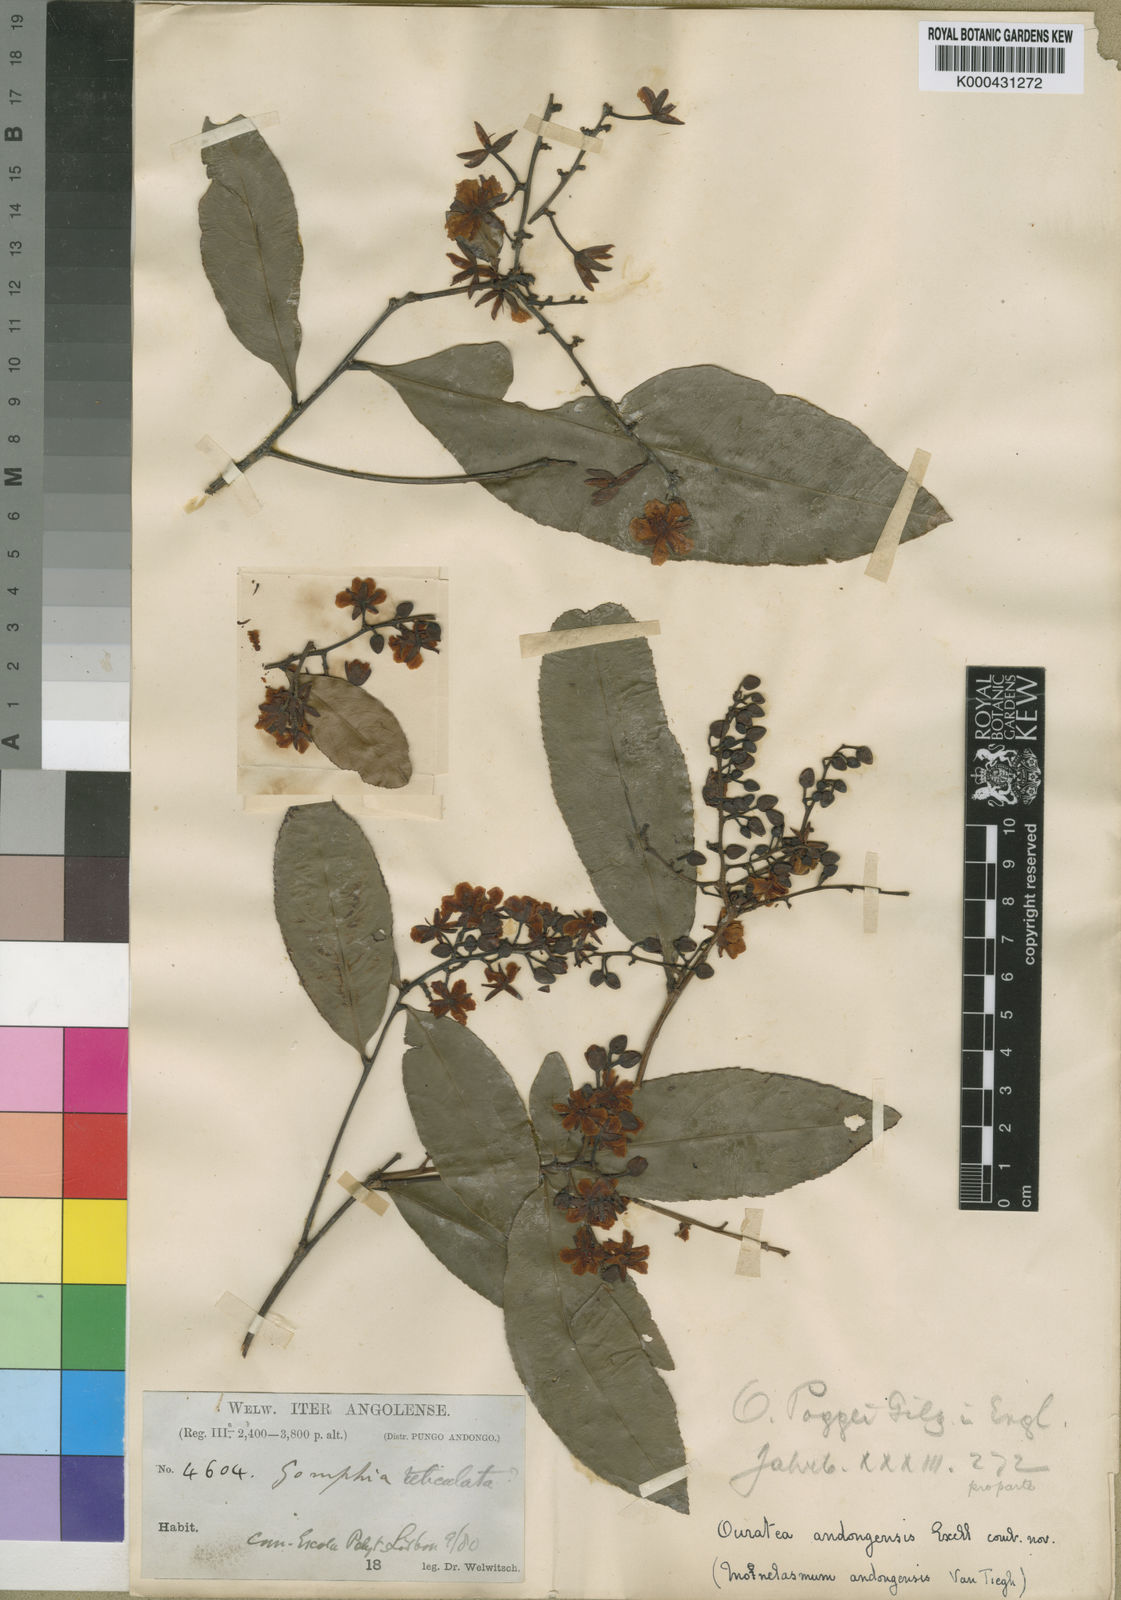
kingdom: Plantae
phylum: Tracheophyta
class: Magnoliopsida
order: Malpighiales
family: Ochnaceae
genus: Campylospermum
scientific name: Campylospermum
